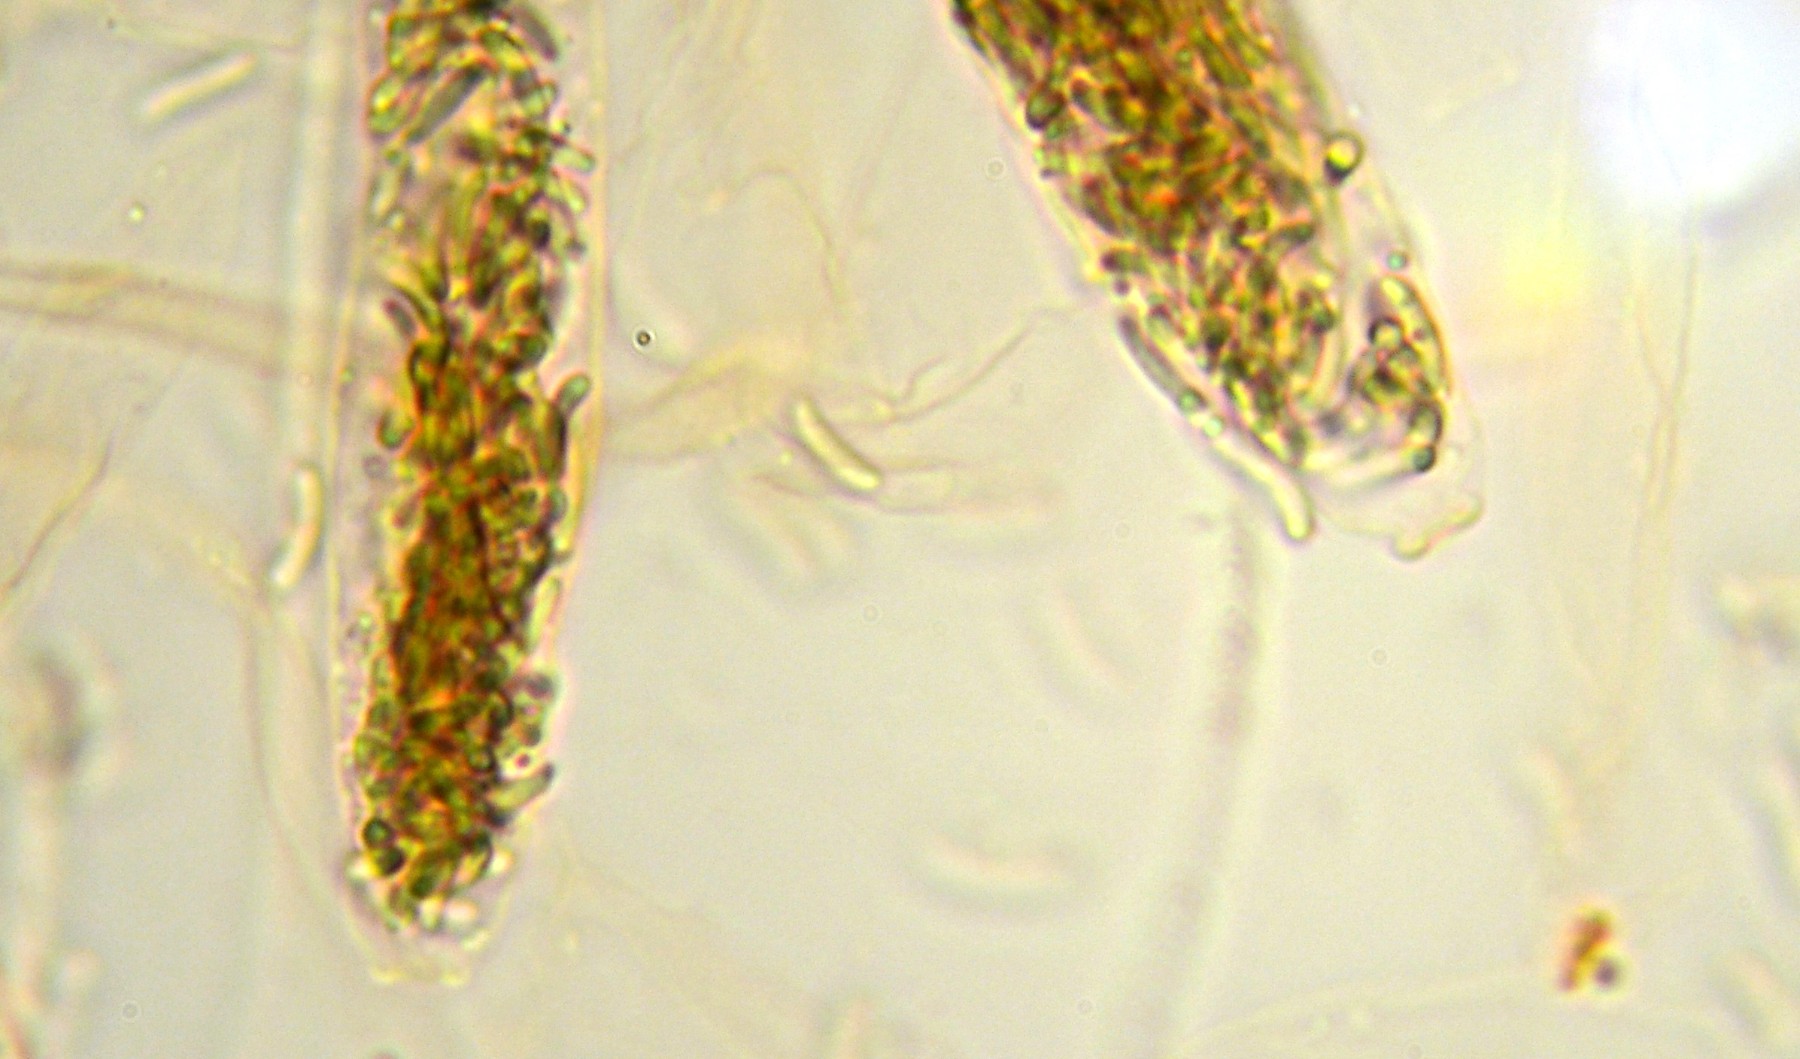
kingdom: Fungi
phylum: Ascomycota
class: Sordariomycetes
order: Xylariales
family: Diatrypaceae
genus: Diatrypella
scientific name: Diatrypella quercina
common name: ege-kulskorpe
